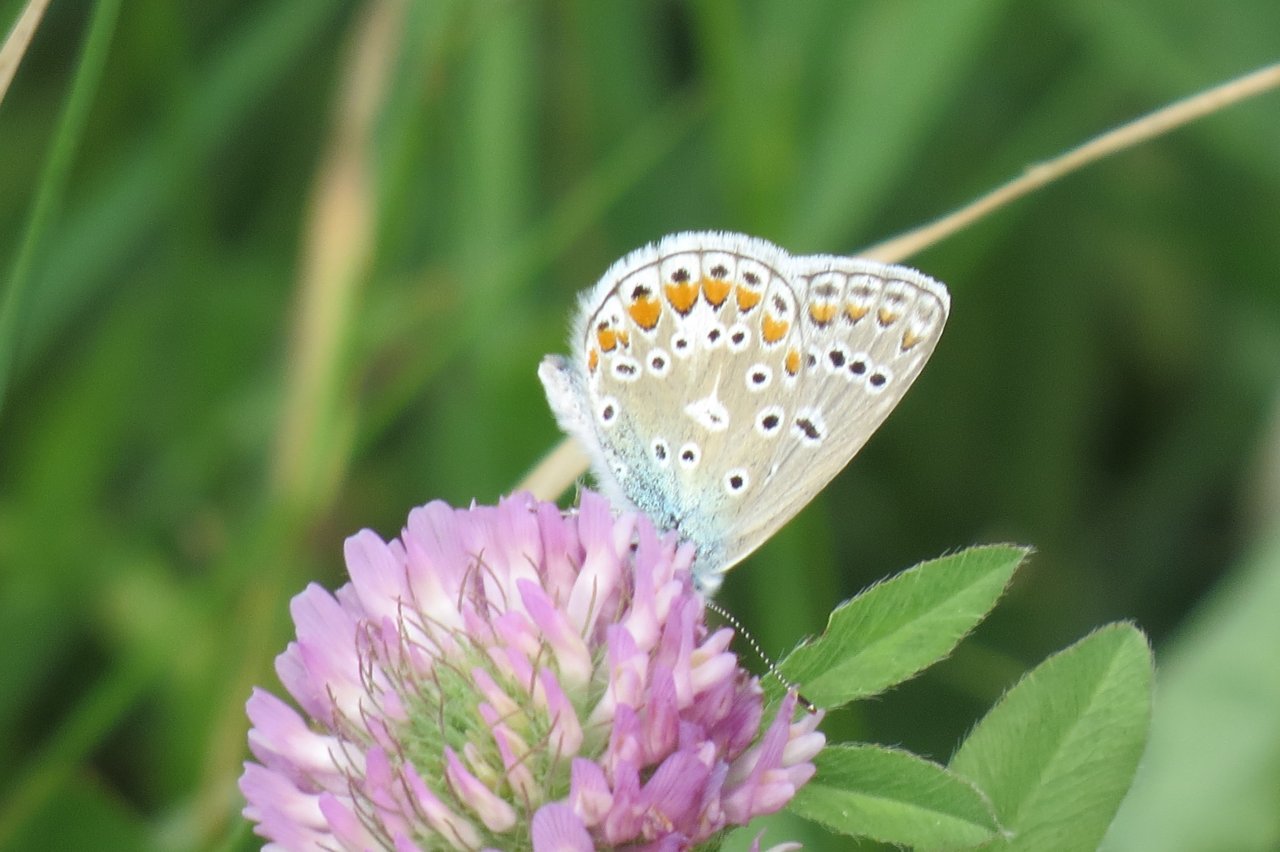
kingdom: Animalia
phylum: Arthropoda
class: Insecta
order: Lepidoptera
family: Lycaenidae
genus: Polyommatus
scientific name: Polyommatus icarus
